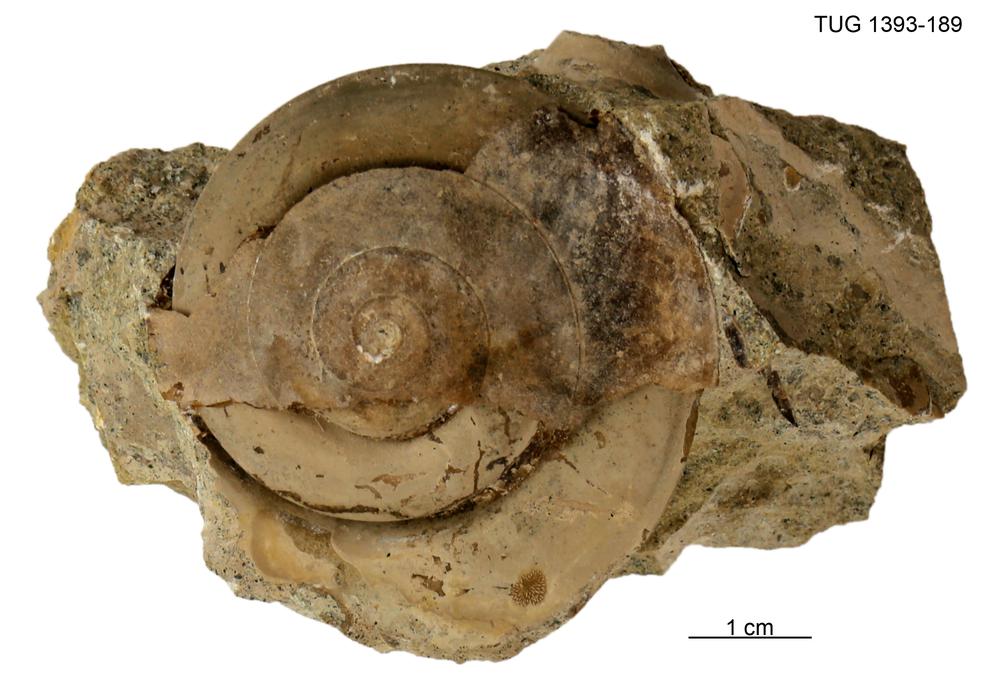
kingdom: Animalia
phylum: Mollusca
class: Gastropoda
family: Lesueurillidae
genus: Pararaphistoma
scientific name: Pararaphistoma Helicites qualteriata
